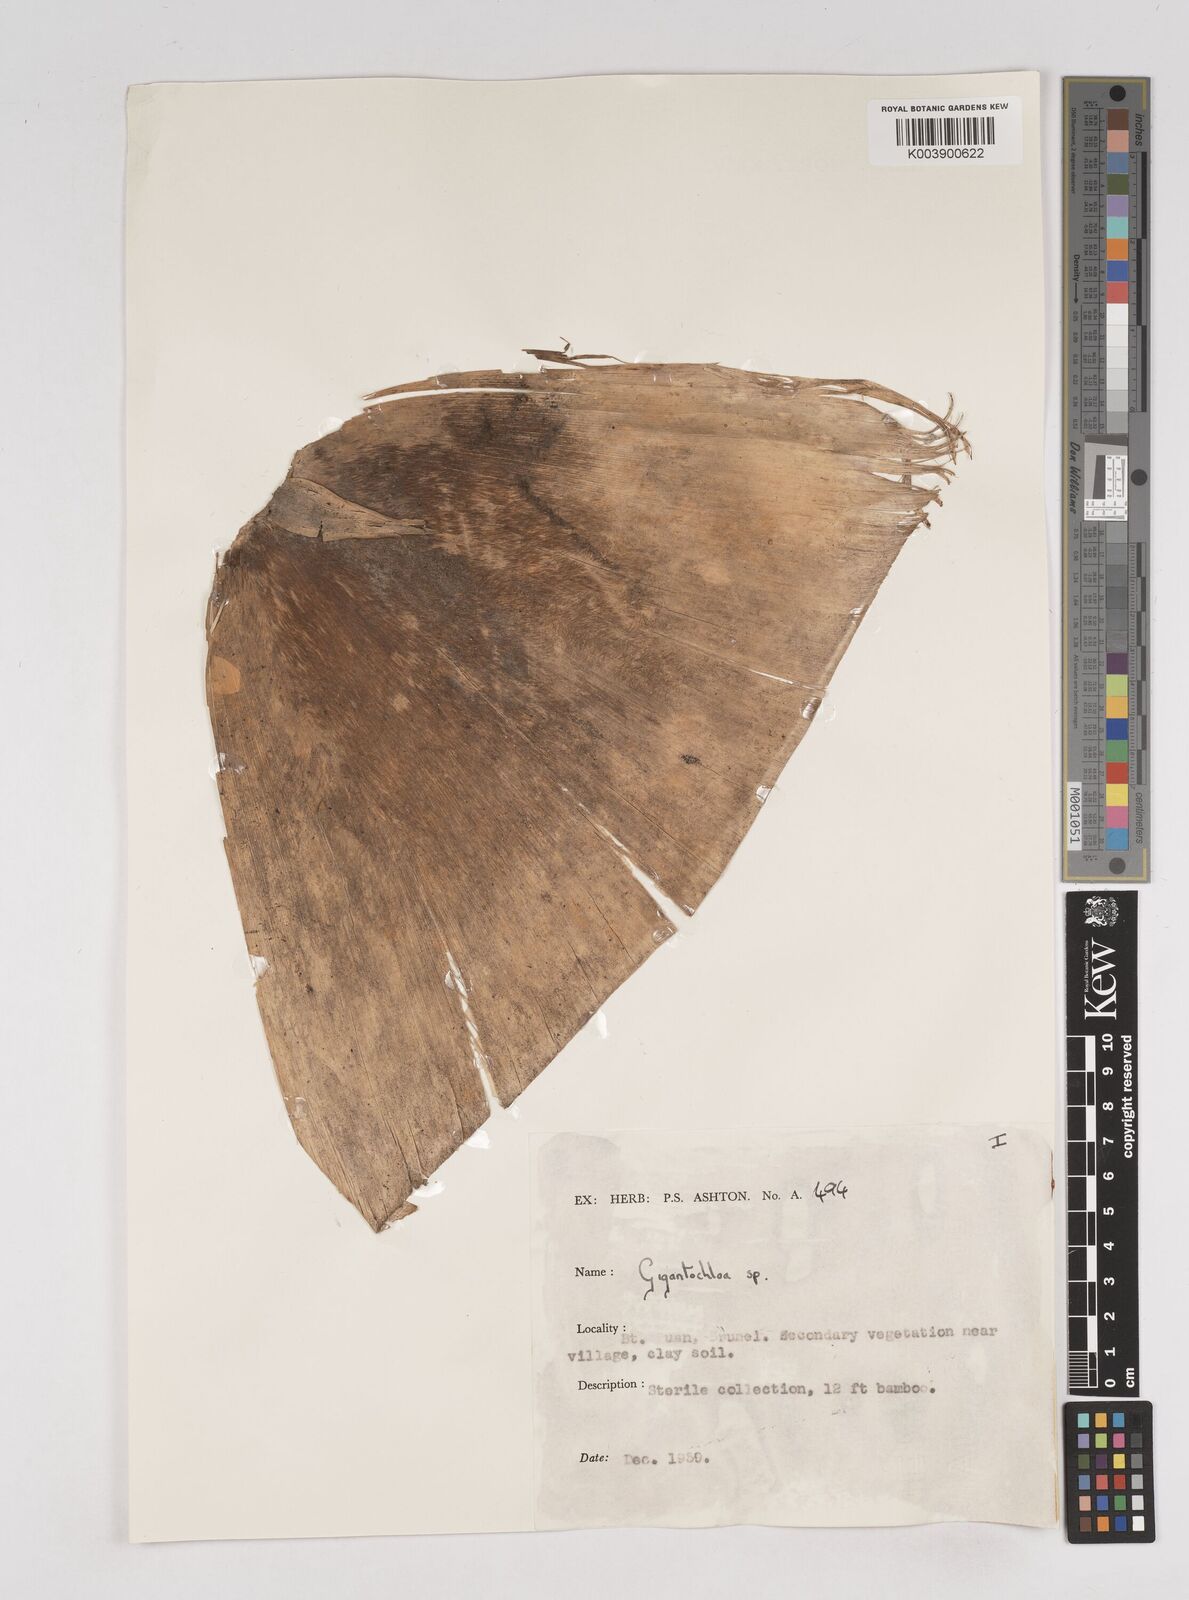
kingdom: Plantae
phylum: Tracheophyta
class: Liliopsida
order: Poales
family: Poaceae
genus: Gigantochloa
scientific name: Gigantochloa
